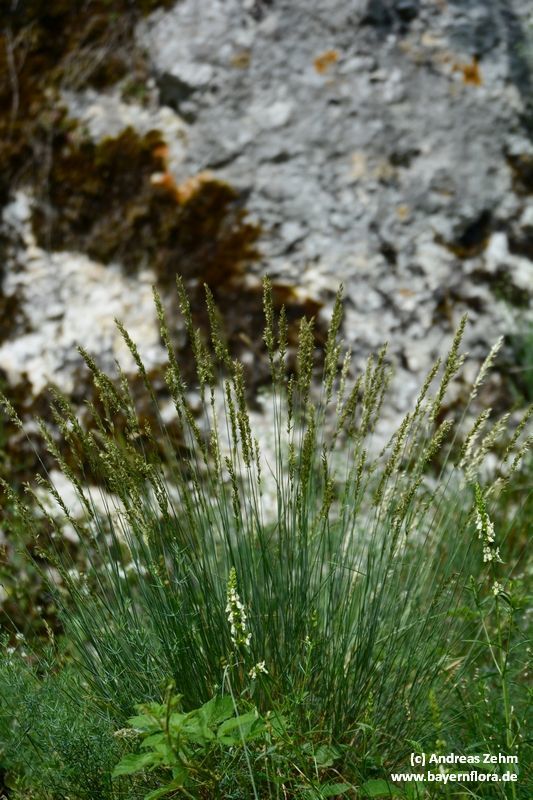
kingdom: Plantae
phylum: Tracheophyta
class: Liliopsida
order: Poales
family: Poaceae
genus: Melica
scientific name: Melica ciliata
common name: Hairy melicgrass
